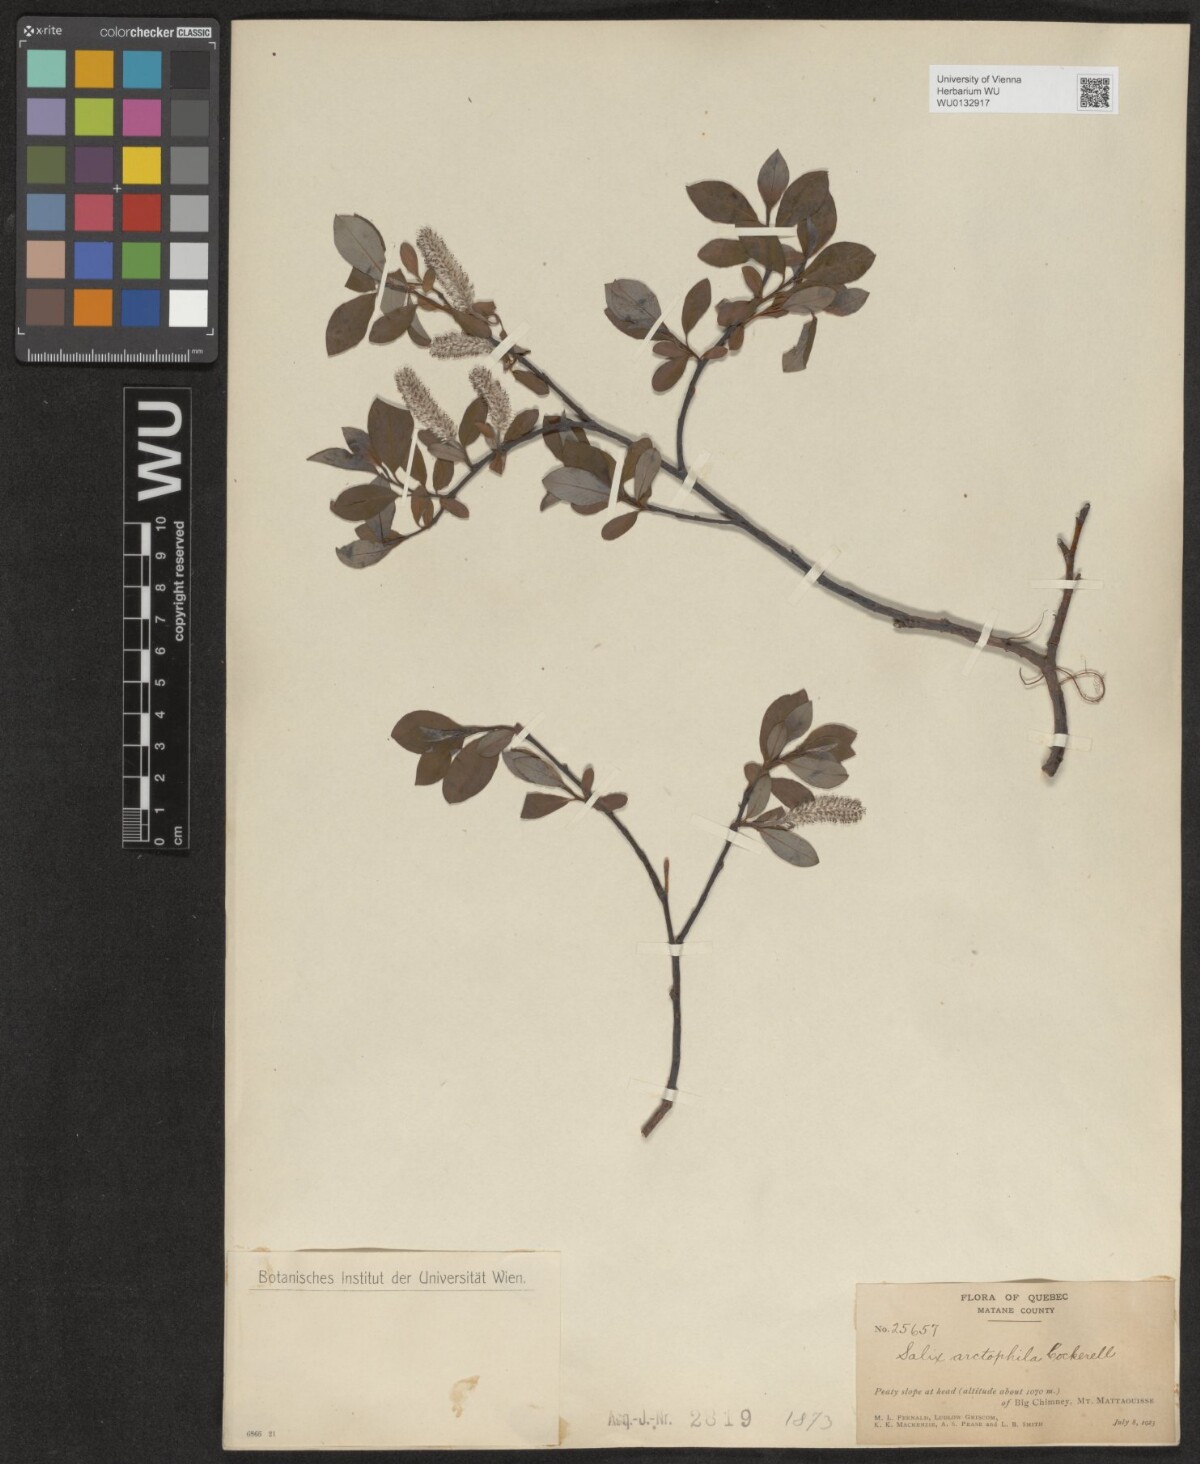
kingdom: Plantae
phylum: Tracheophyta
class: Magnoliopsida
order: Malpighiales
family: Salicaceae
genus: Salix
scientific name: Salix arctophila
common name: Greenland willow
